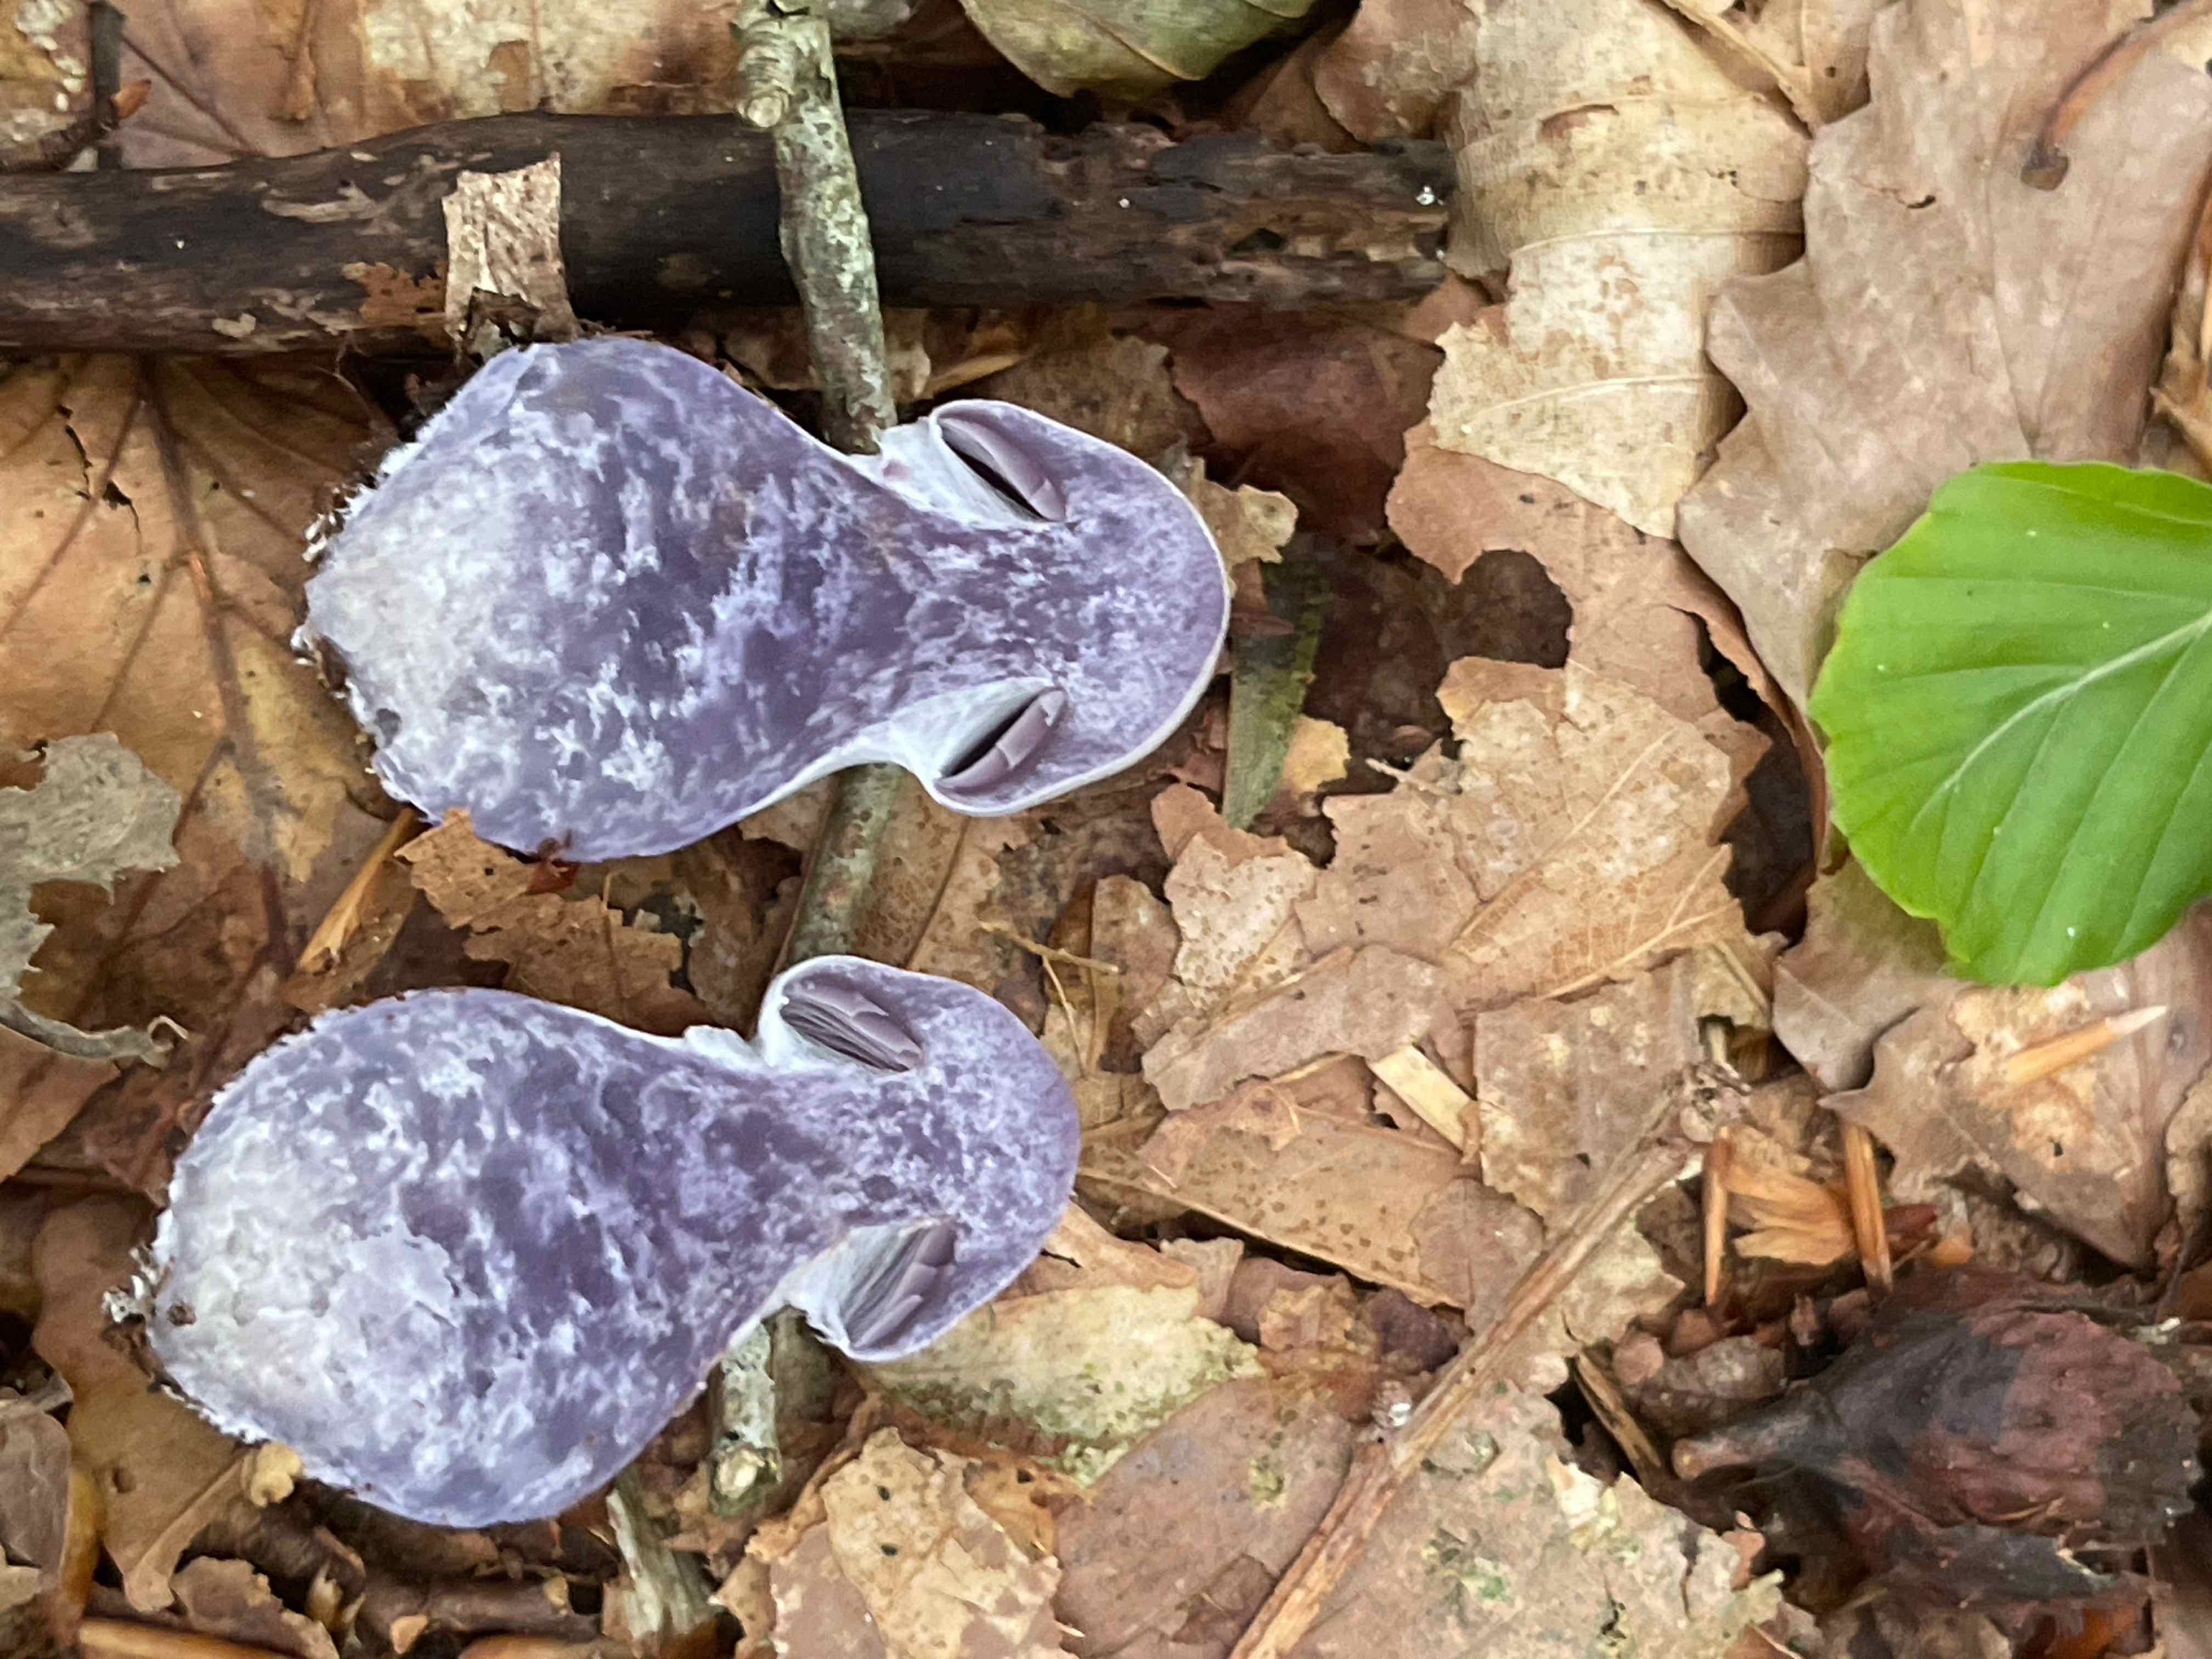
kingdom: Fungi
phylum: Basidiomycota
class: Agaricomycetes
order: Agaricales
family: Cortinariaceae
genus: Cortinarius
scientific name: Cortinarius alboviolaceus
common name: lysviolet slørhat
